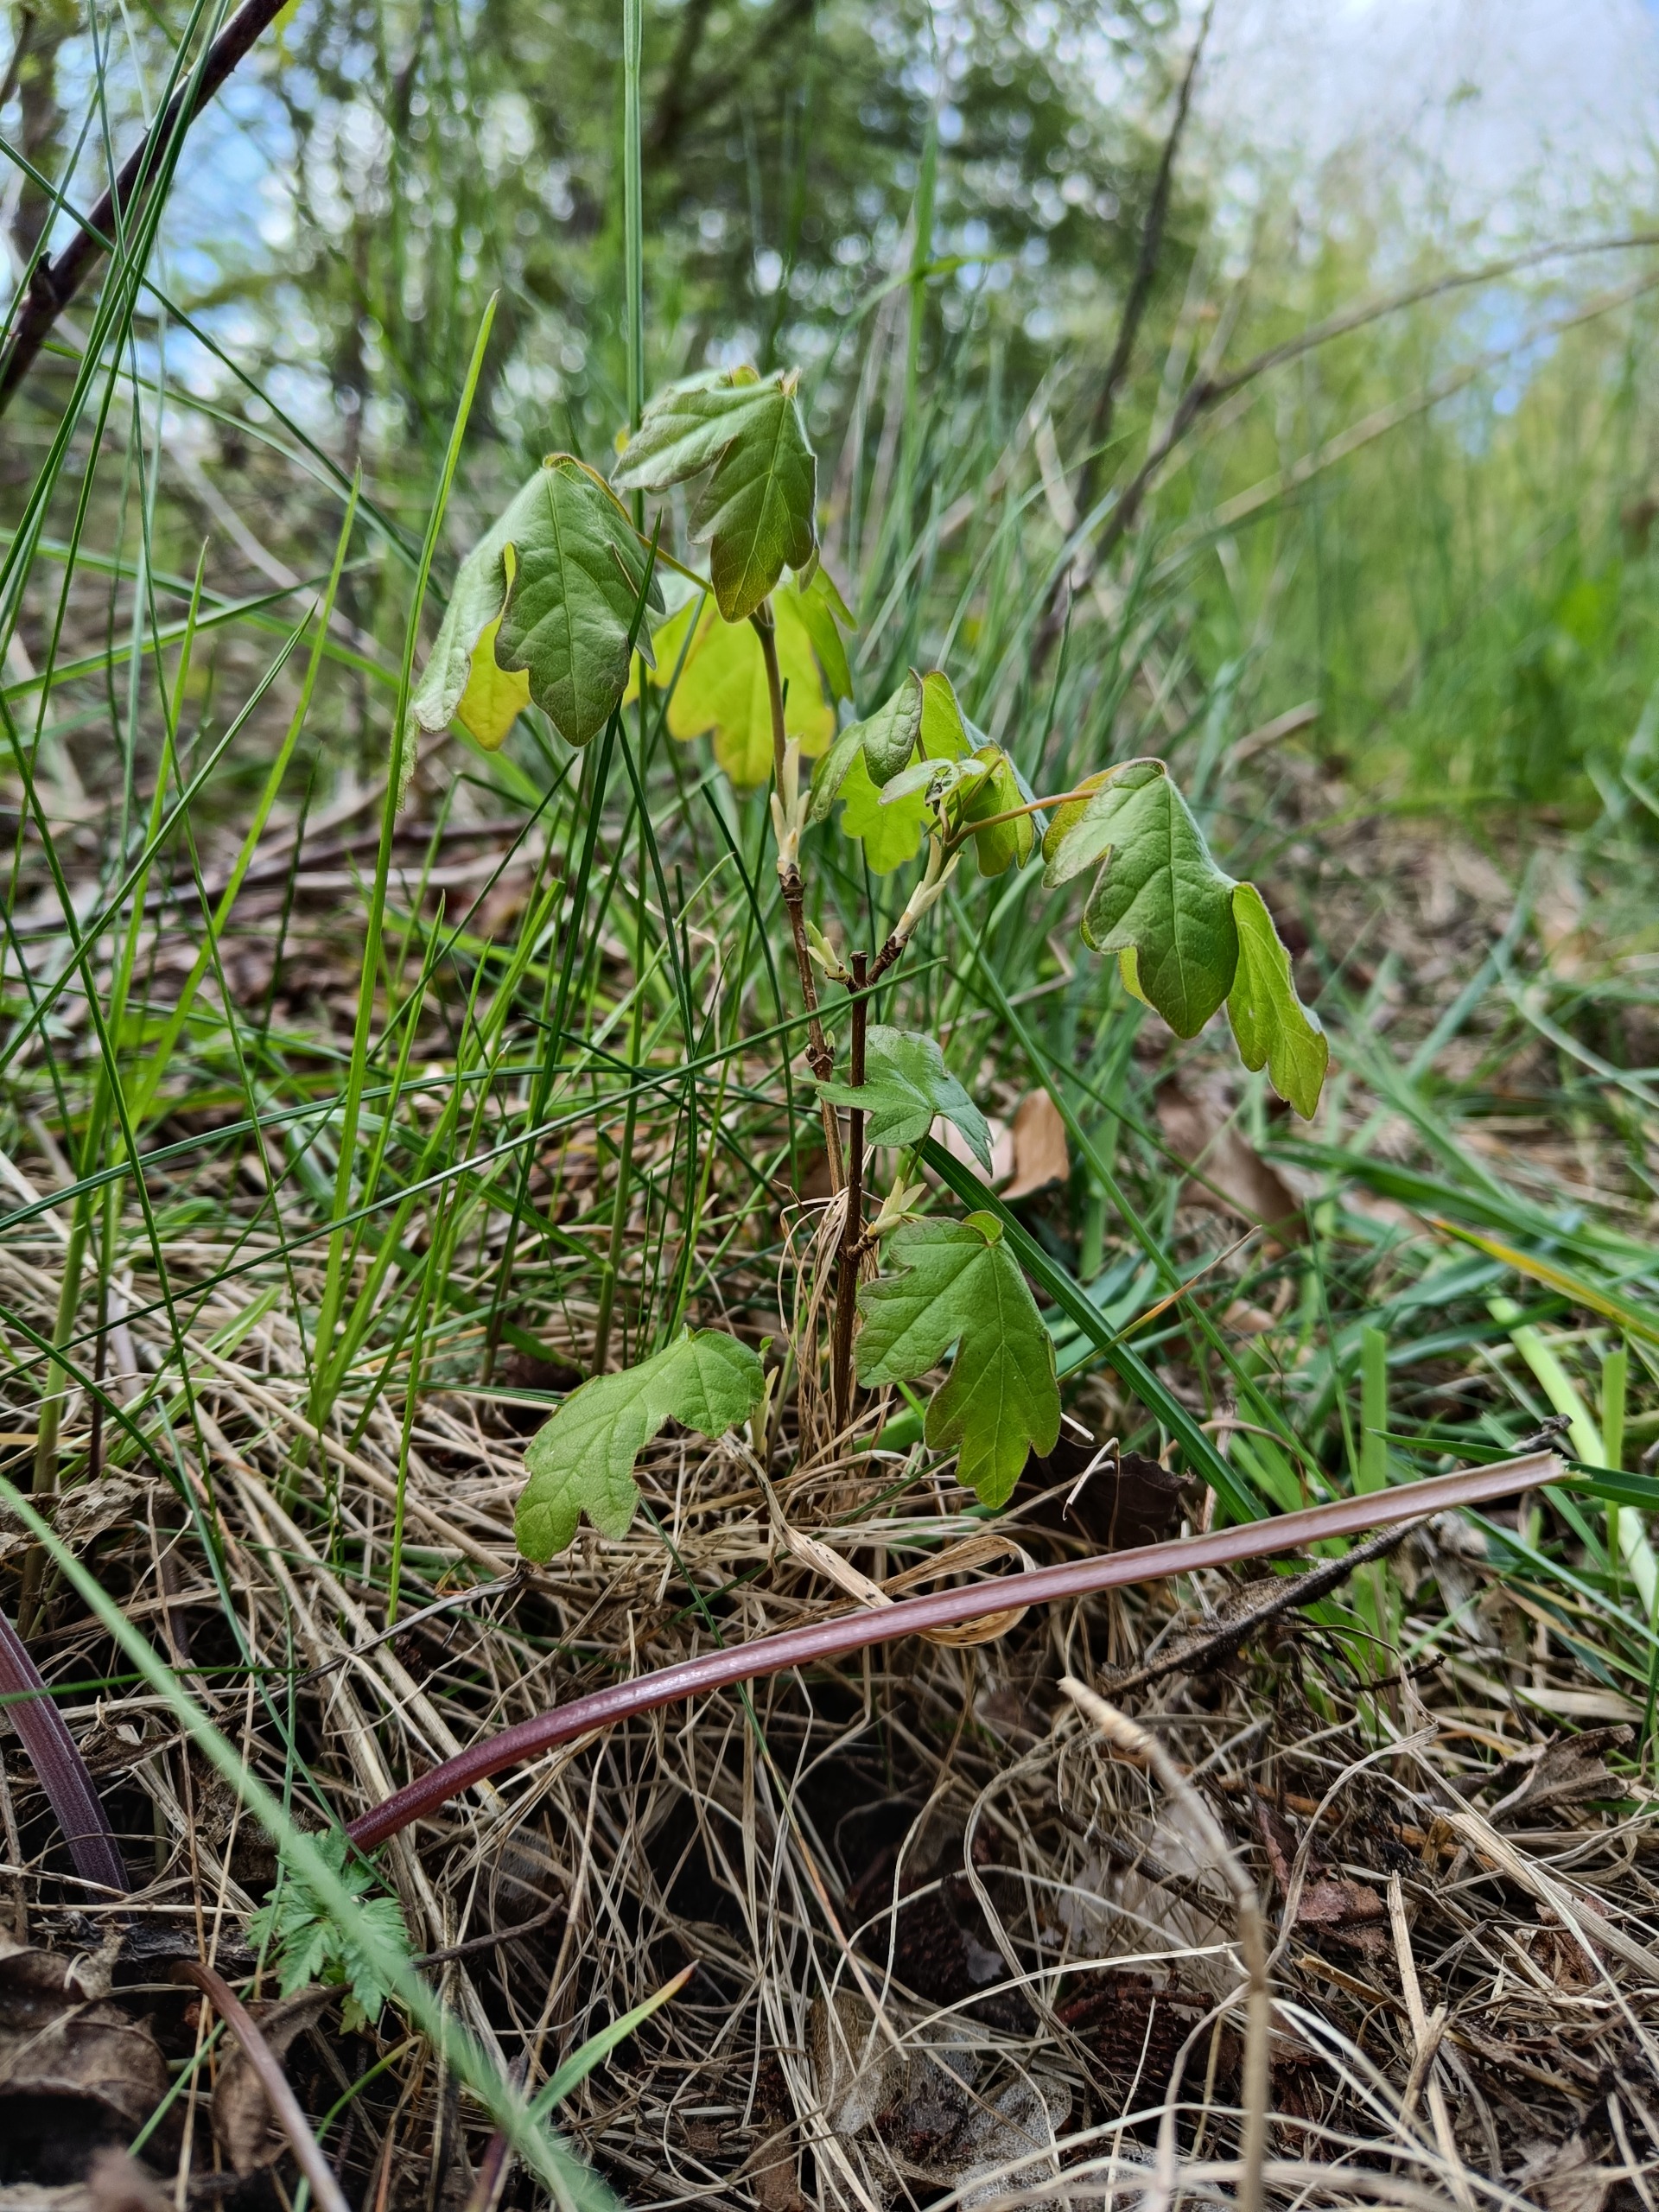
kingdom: Plantae
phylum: Tracheophyta
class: Magnoliopsida
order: Sapindales
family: Sapindaceae
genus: Acer
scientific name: Acer campestre
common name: Navr
